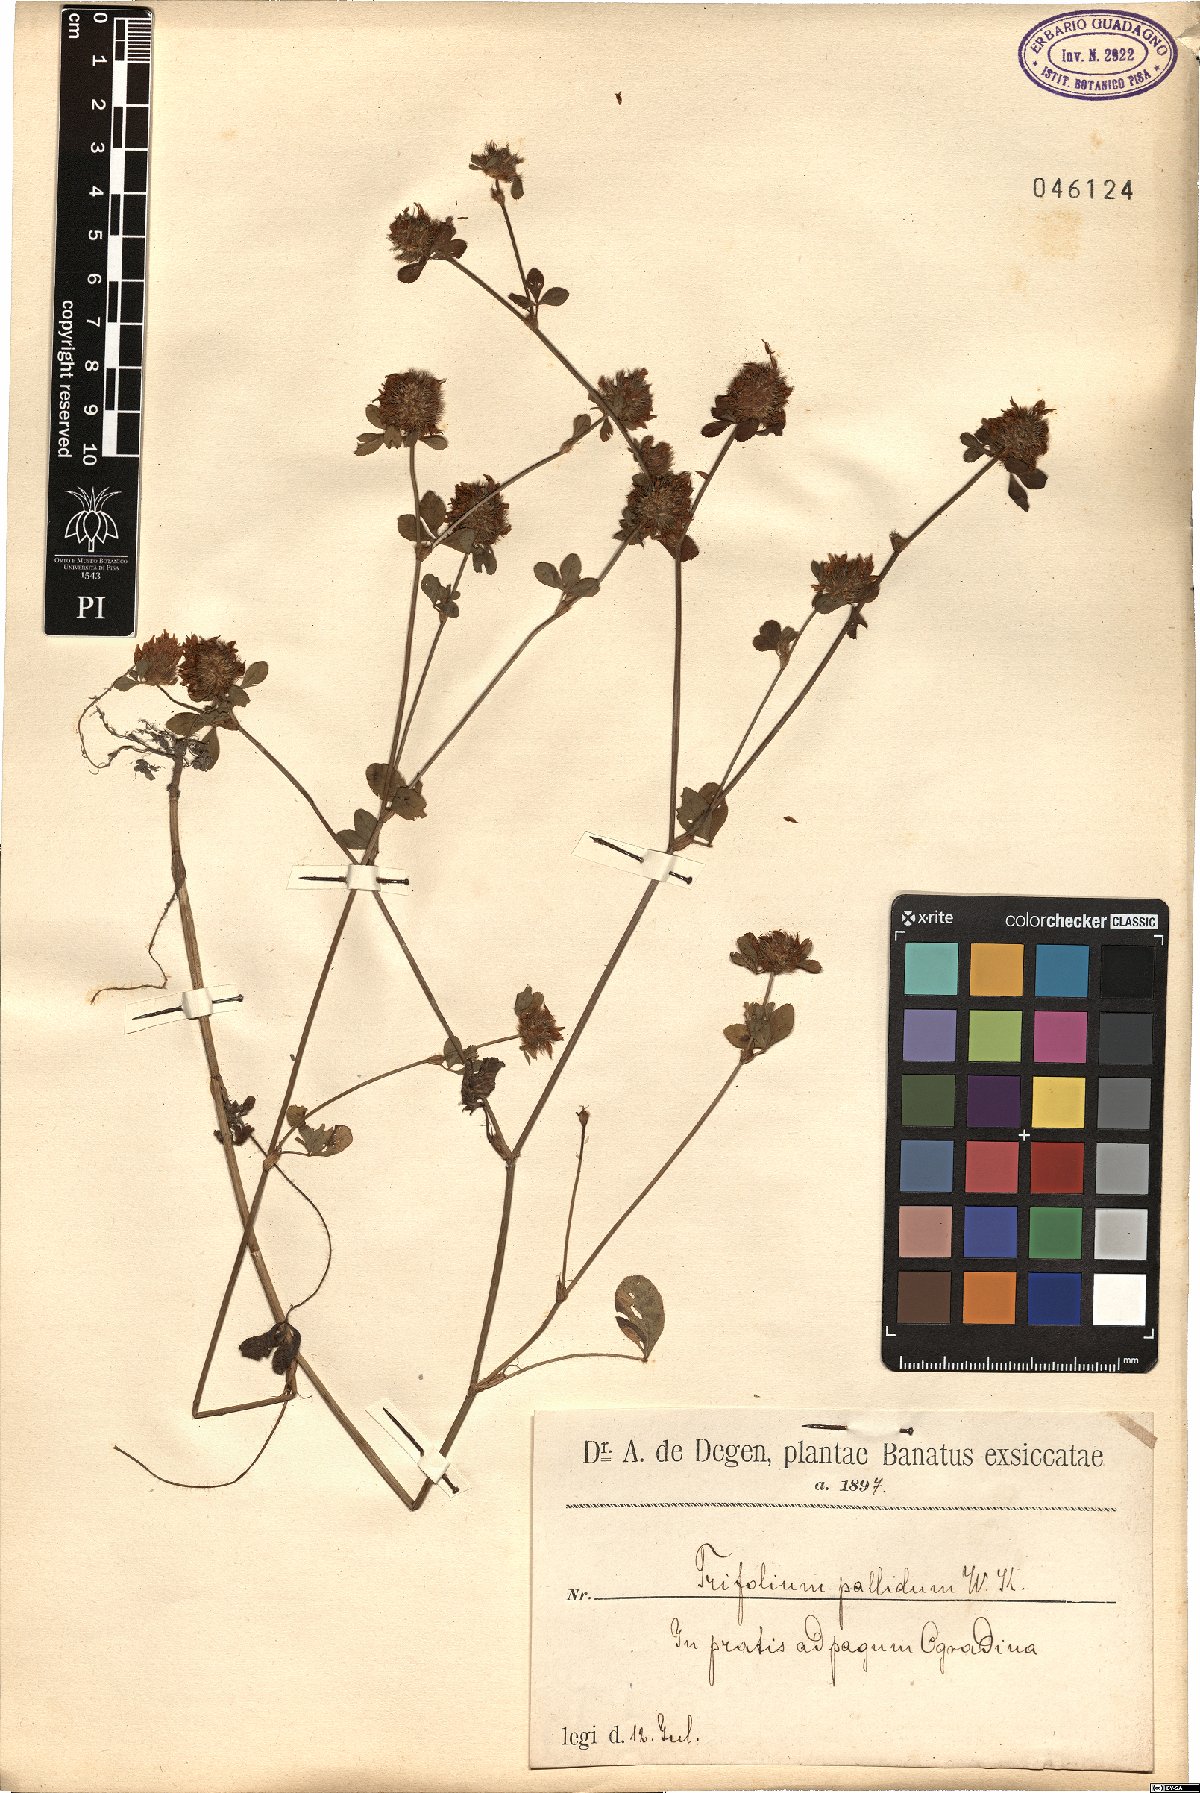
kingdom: Plantae
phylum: Tracheophyta
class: Magnoliopsida
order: Fabales
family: Fabaceae
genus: Trifolium
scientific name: Trifolium pallidum
